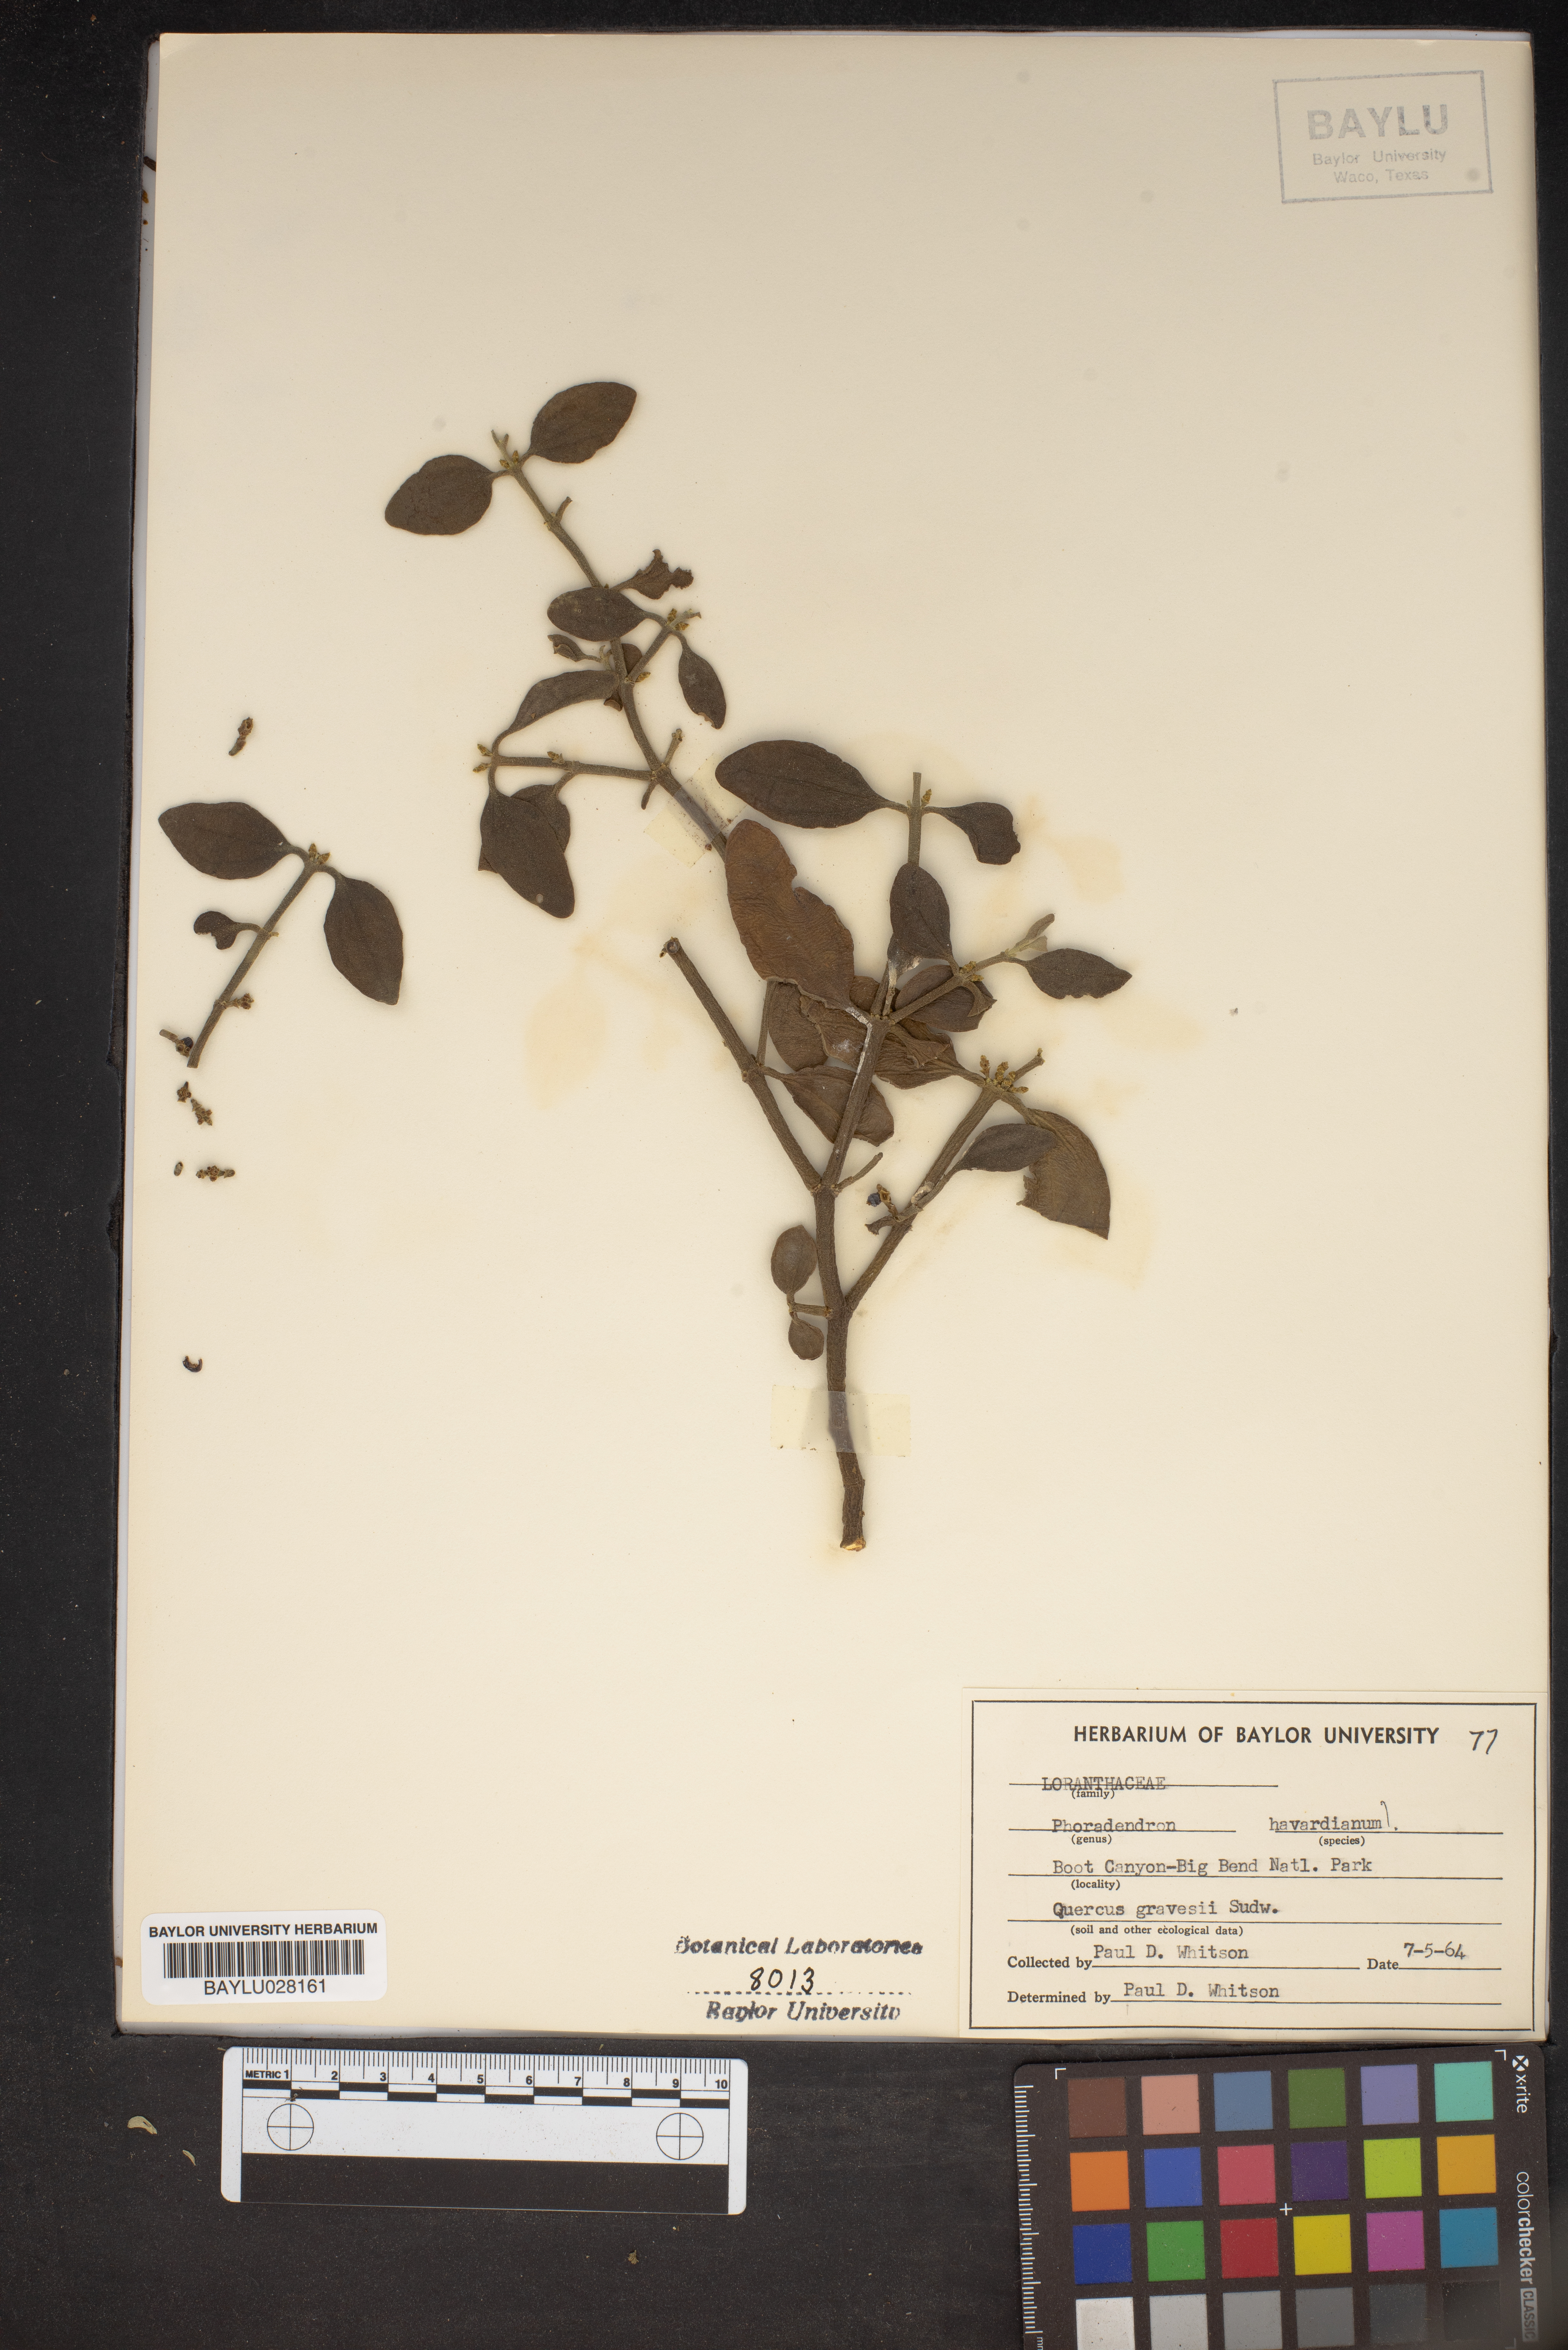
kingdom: Plantae
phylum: Tracheophyta
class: Magnoliopsida
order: Santalales
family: Viscaceae
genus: Phoradendron
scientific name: Phoradendron coryae
